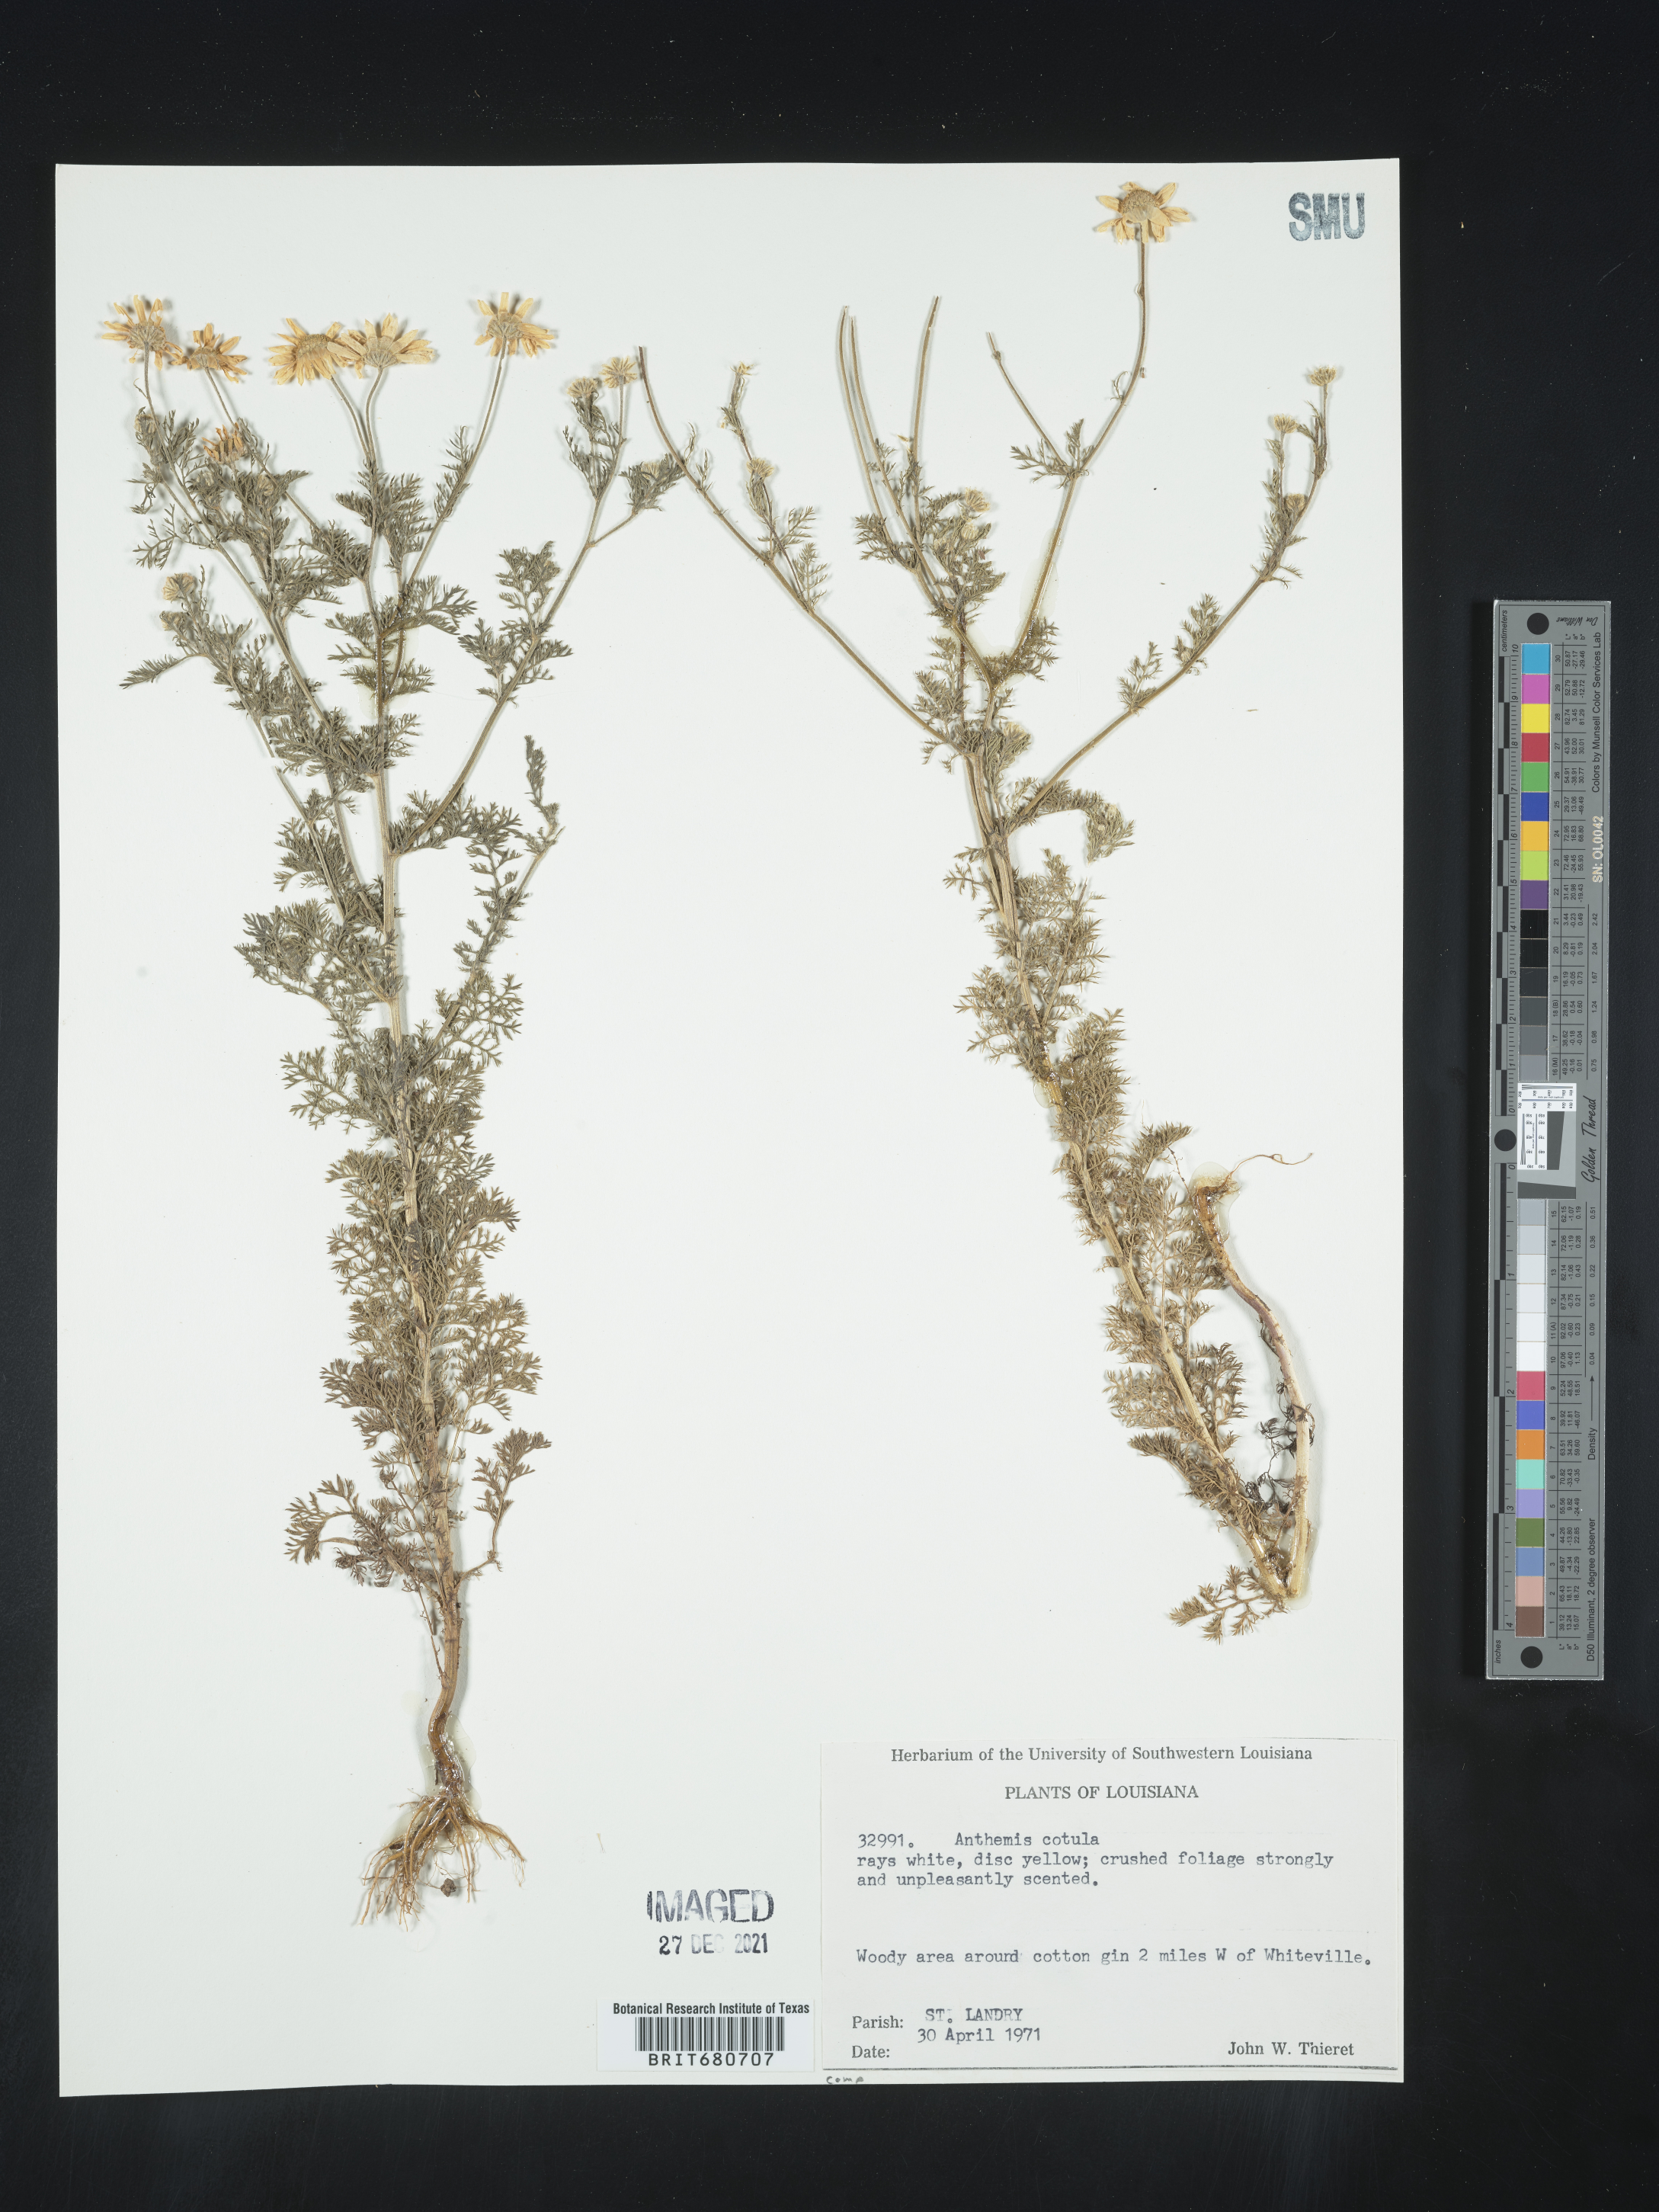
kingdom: Plantae
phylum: Tracheophyta
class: Magnoliopsida
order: Asterales
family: Asteraceae
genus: Anthemis
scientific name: Anthemis cotula
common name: Stinking chamomile
